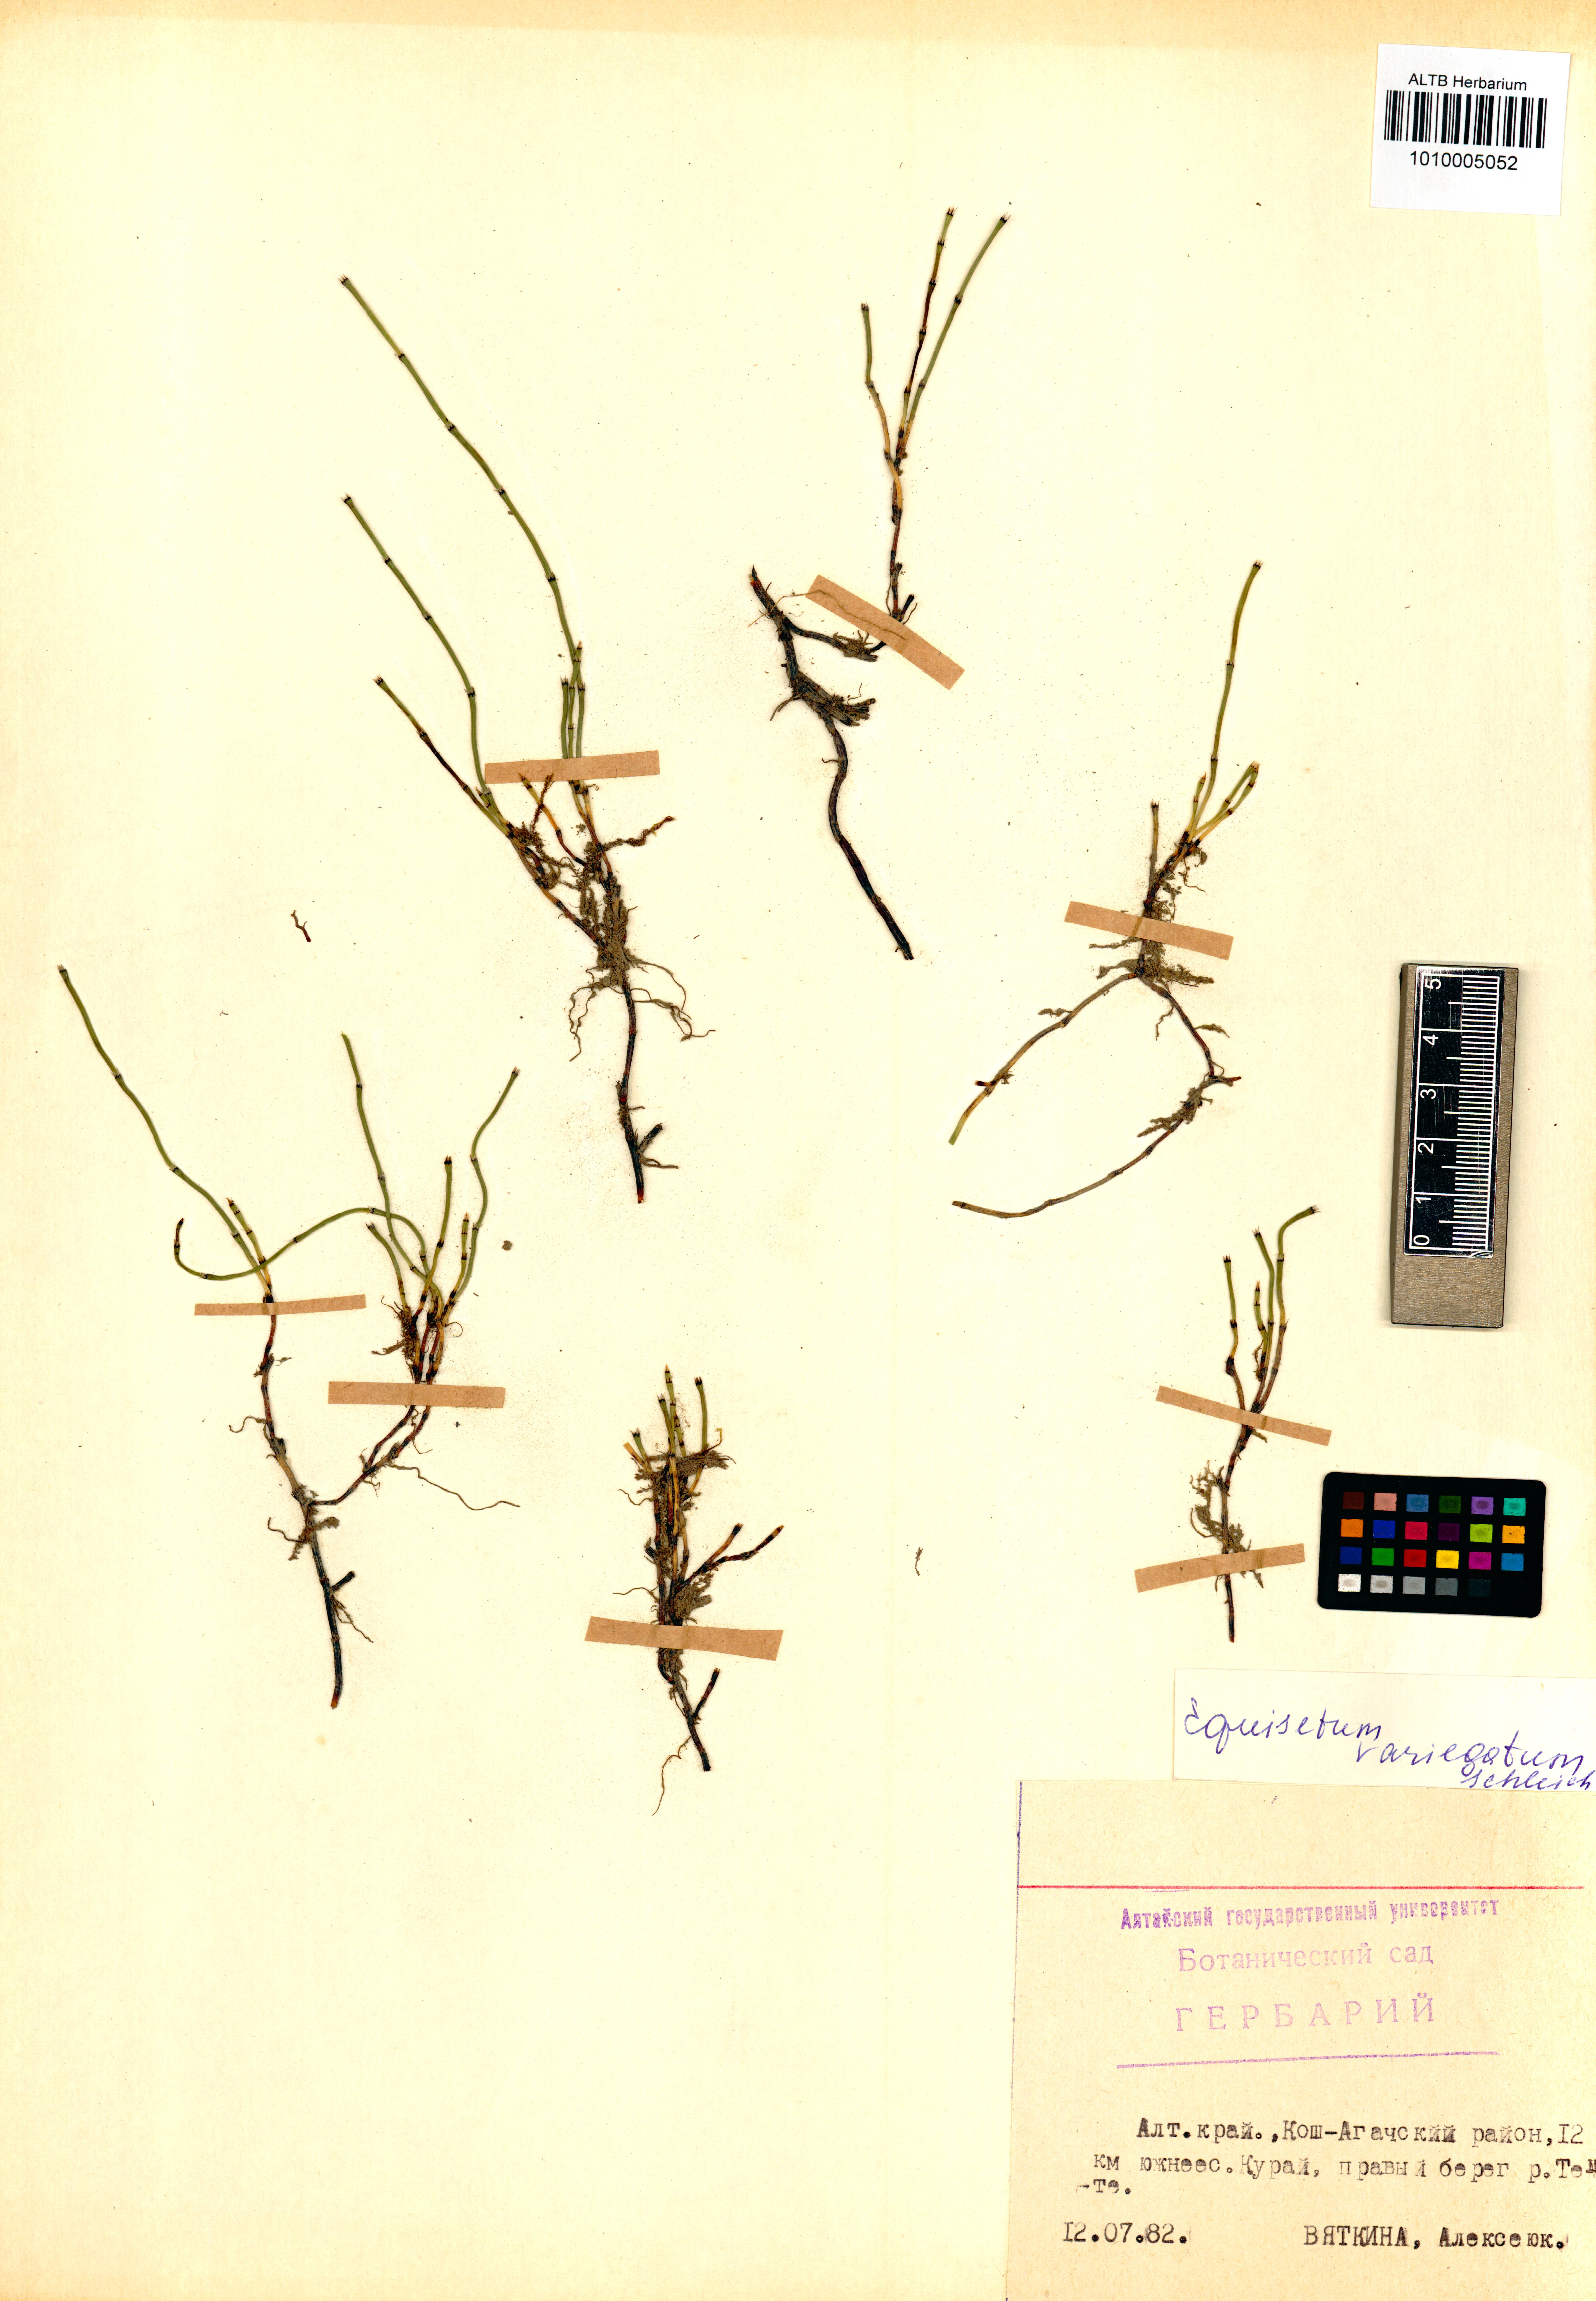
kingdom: Plantae
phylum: Tracheophyta
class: Polypodiopsida
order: Equisetales
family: Equisetaceae
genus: Equisetum
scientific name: Equisetum variegatum
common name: Variegated horsetail
